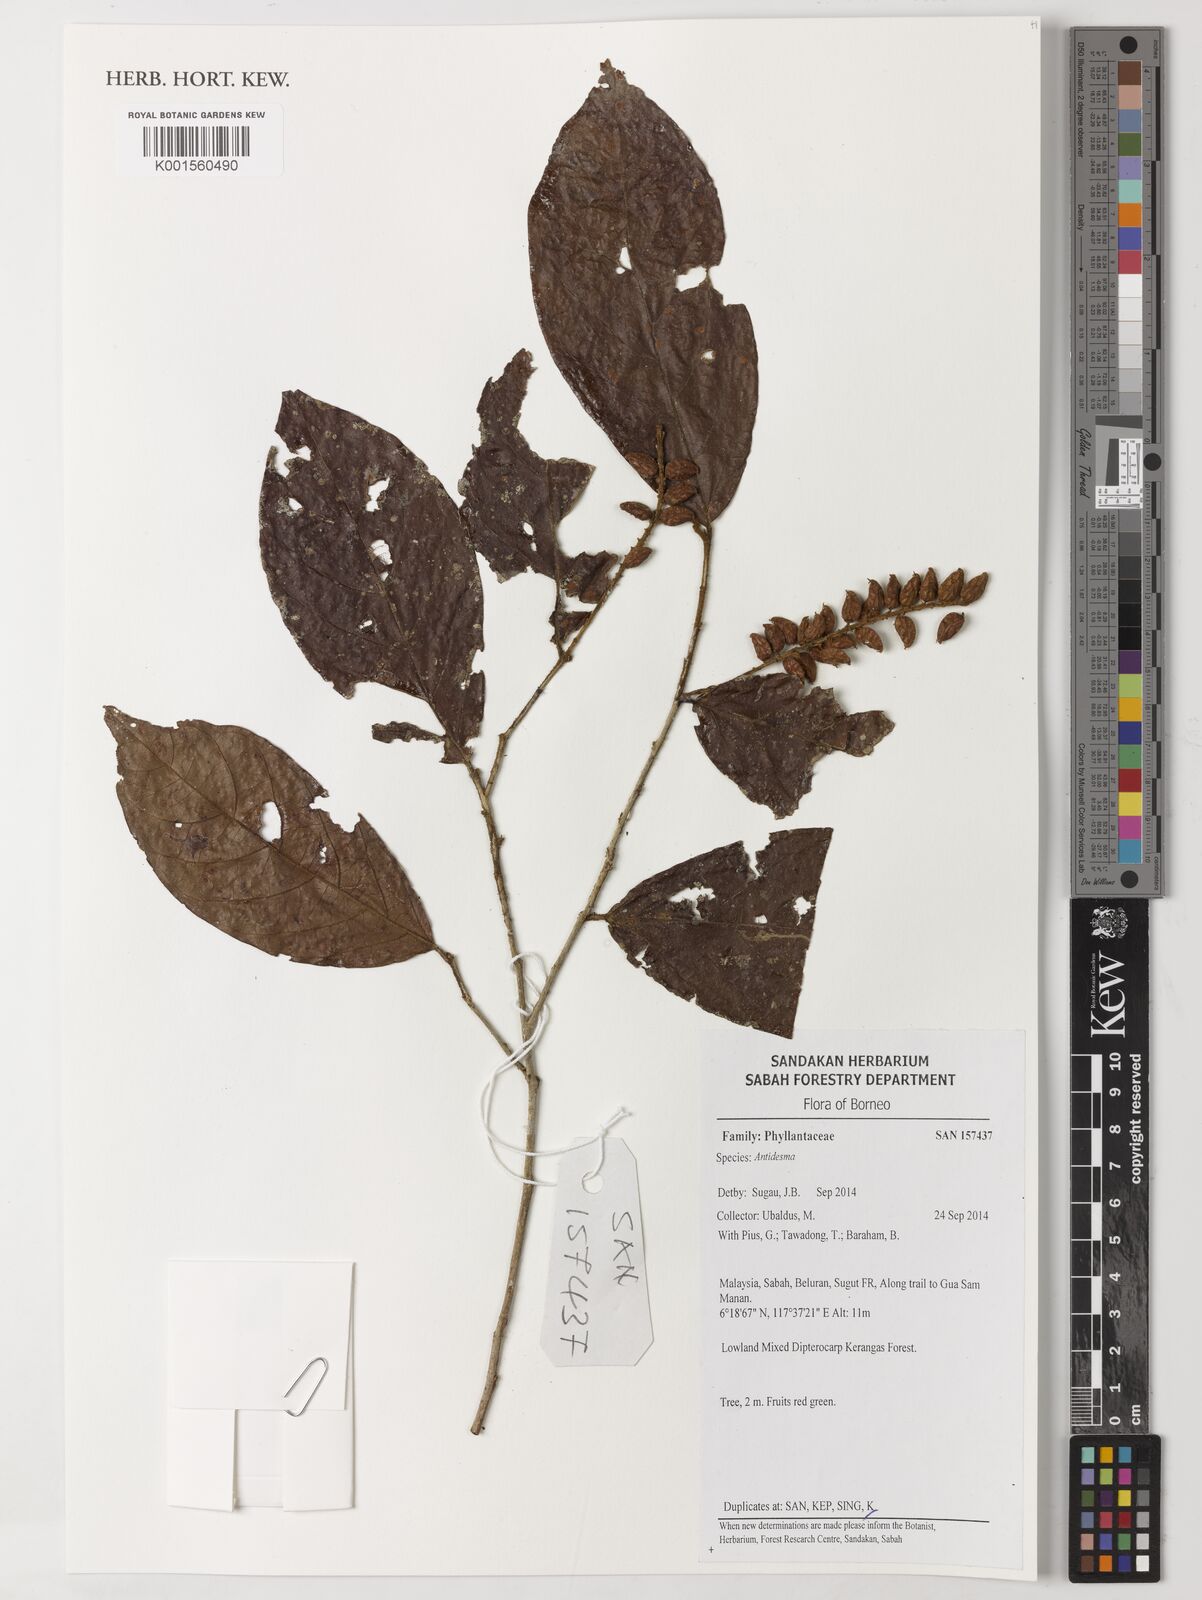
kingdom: Plantae
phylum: Tracheophyta
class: Magnoliopsida
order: Malpighiales
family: Phyllanthaceae
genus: Antidesma
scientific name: Antidesma
